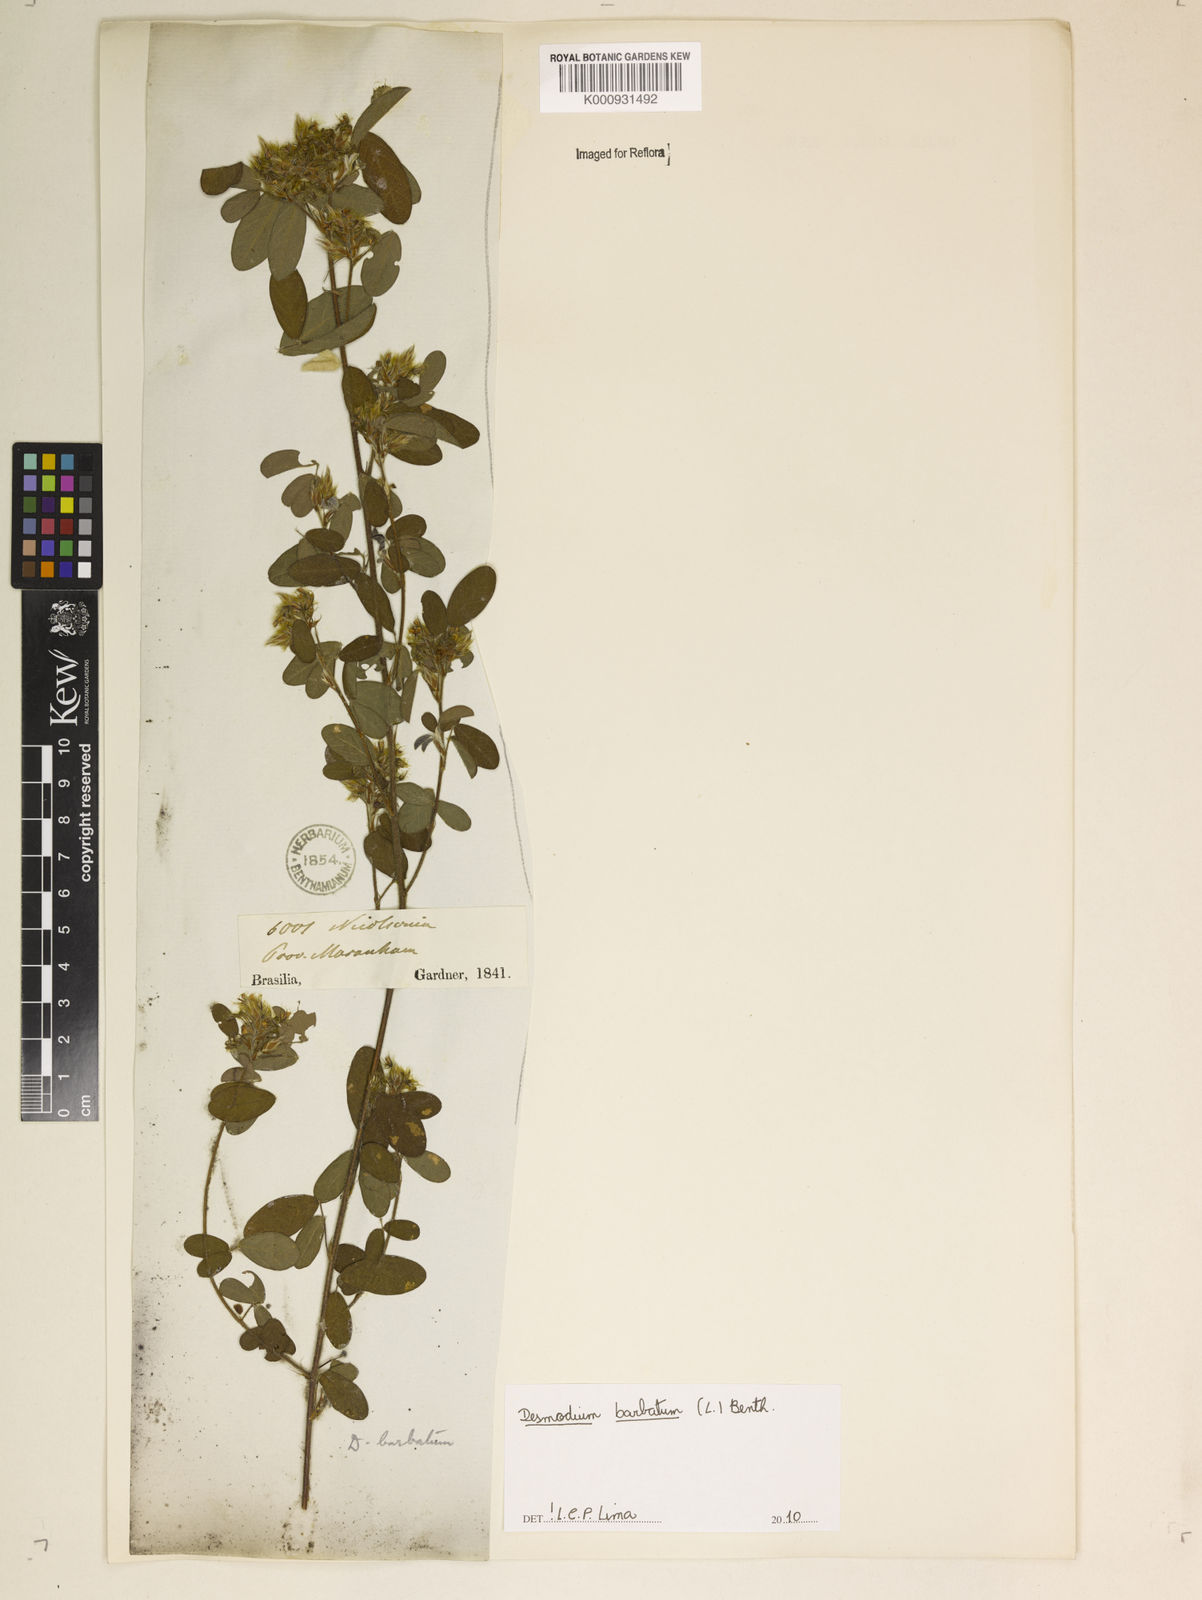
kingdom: Plantae
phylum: Tracheophyta
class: Magnoliopsida
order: Fabales
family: Fabaceae
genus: Grona
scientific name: Grona barbata
